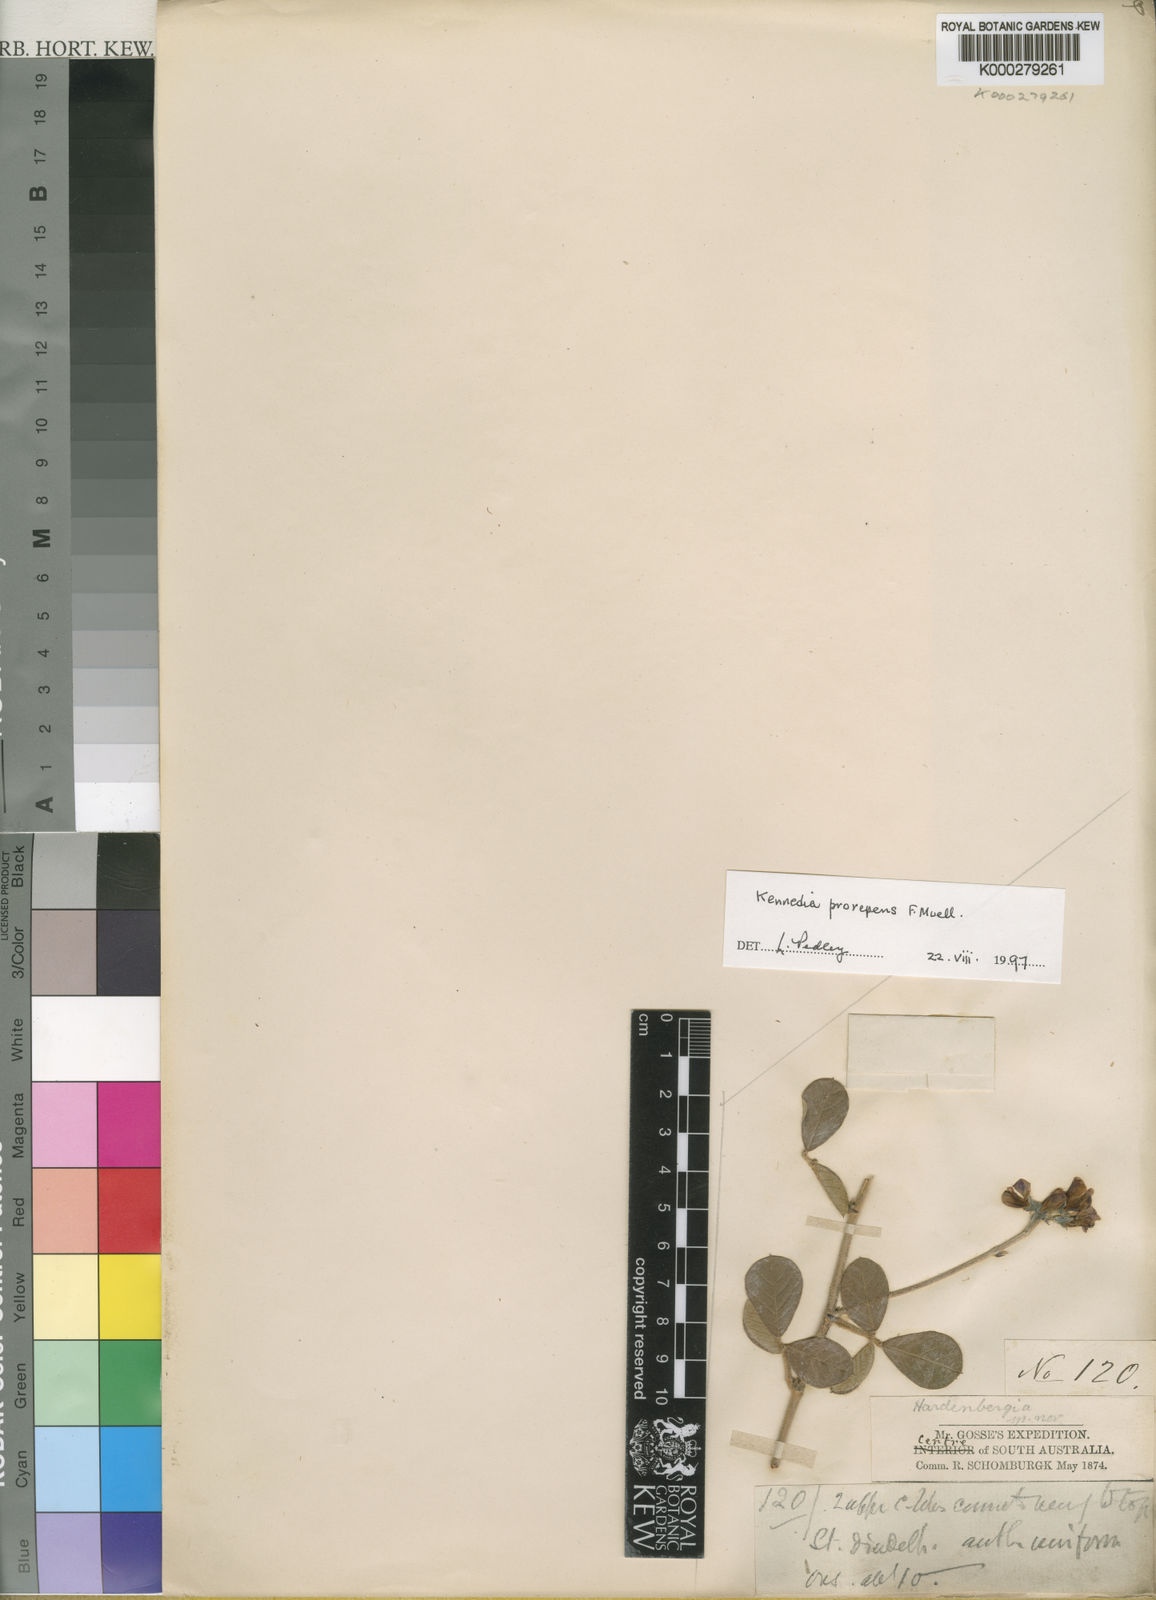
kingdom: Plantae
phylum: Tracheophyta
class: Magnoliopsida
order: Fabales
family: Fabaceae
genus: Kennedia
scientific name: Kennedia prorepens
